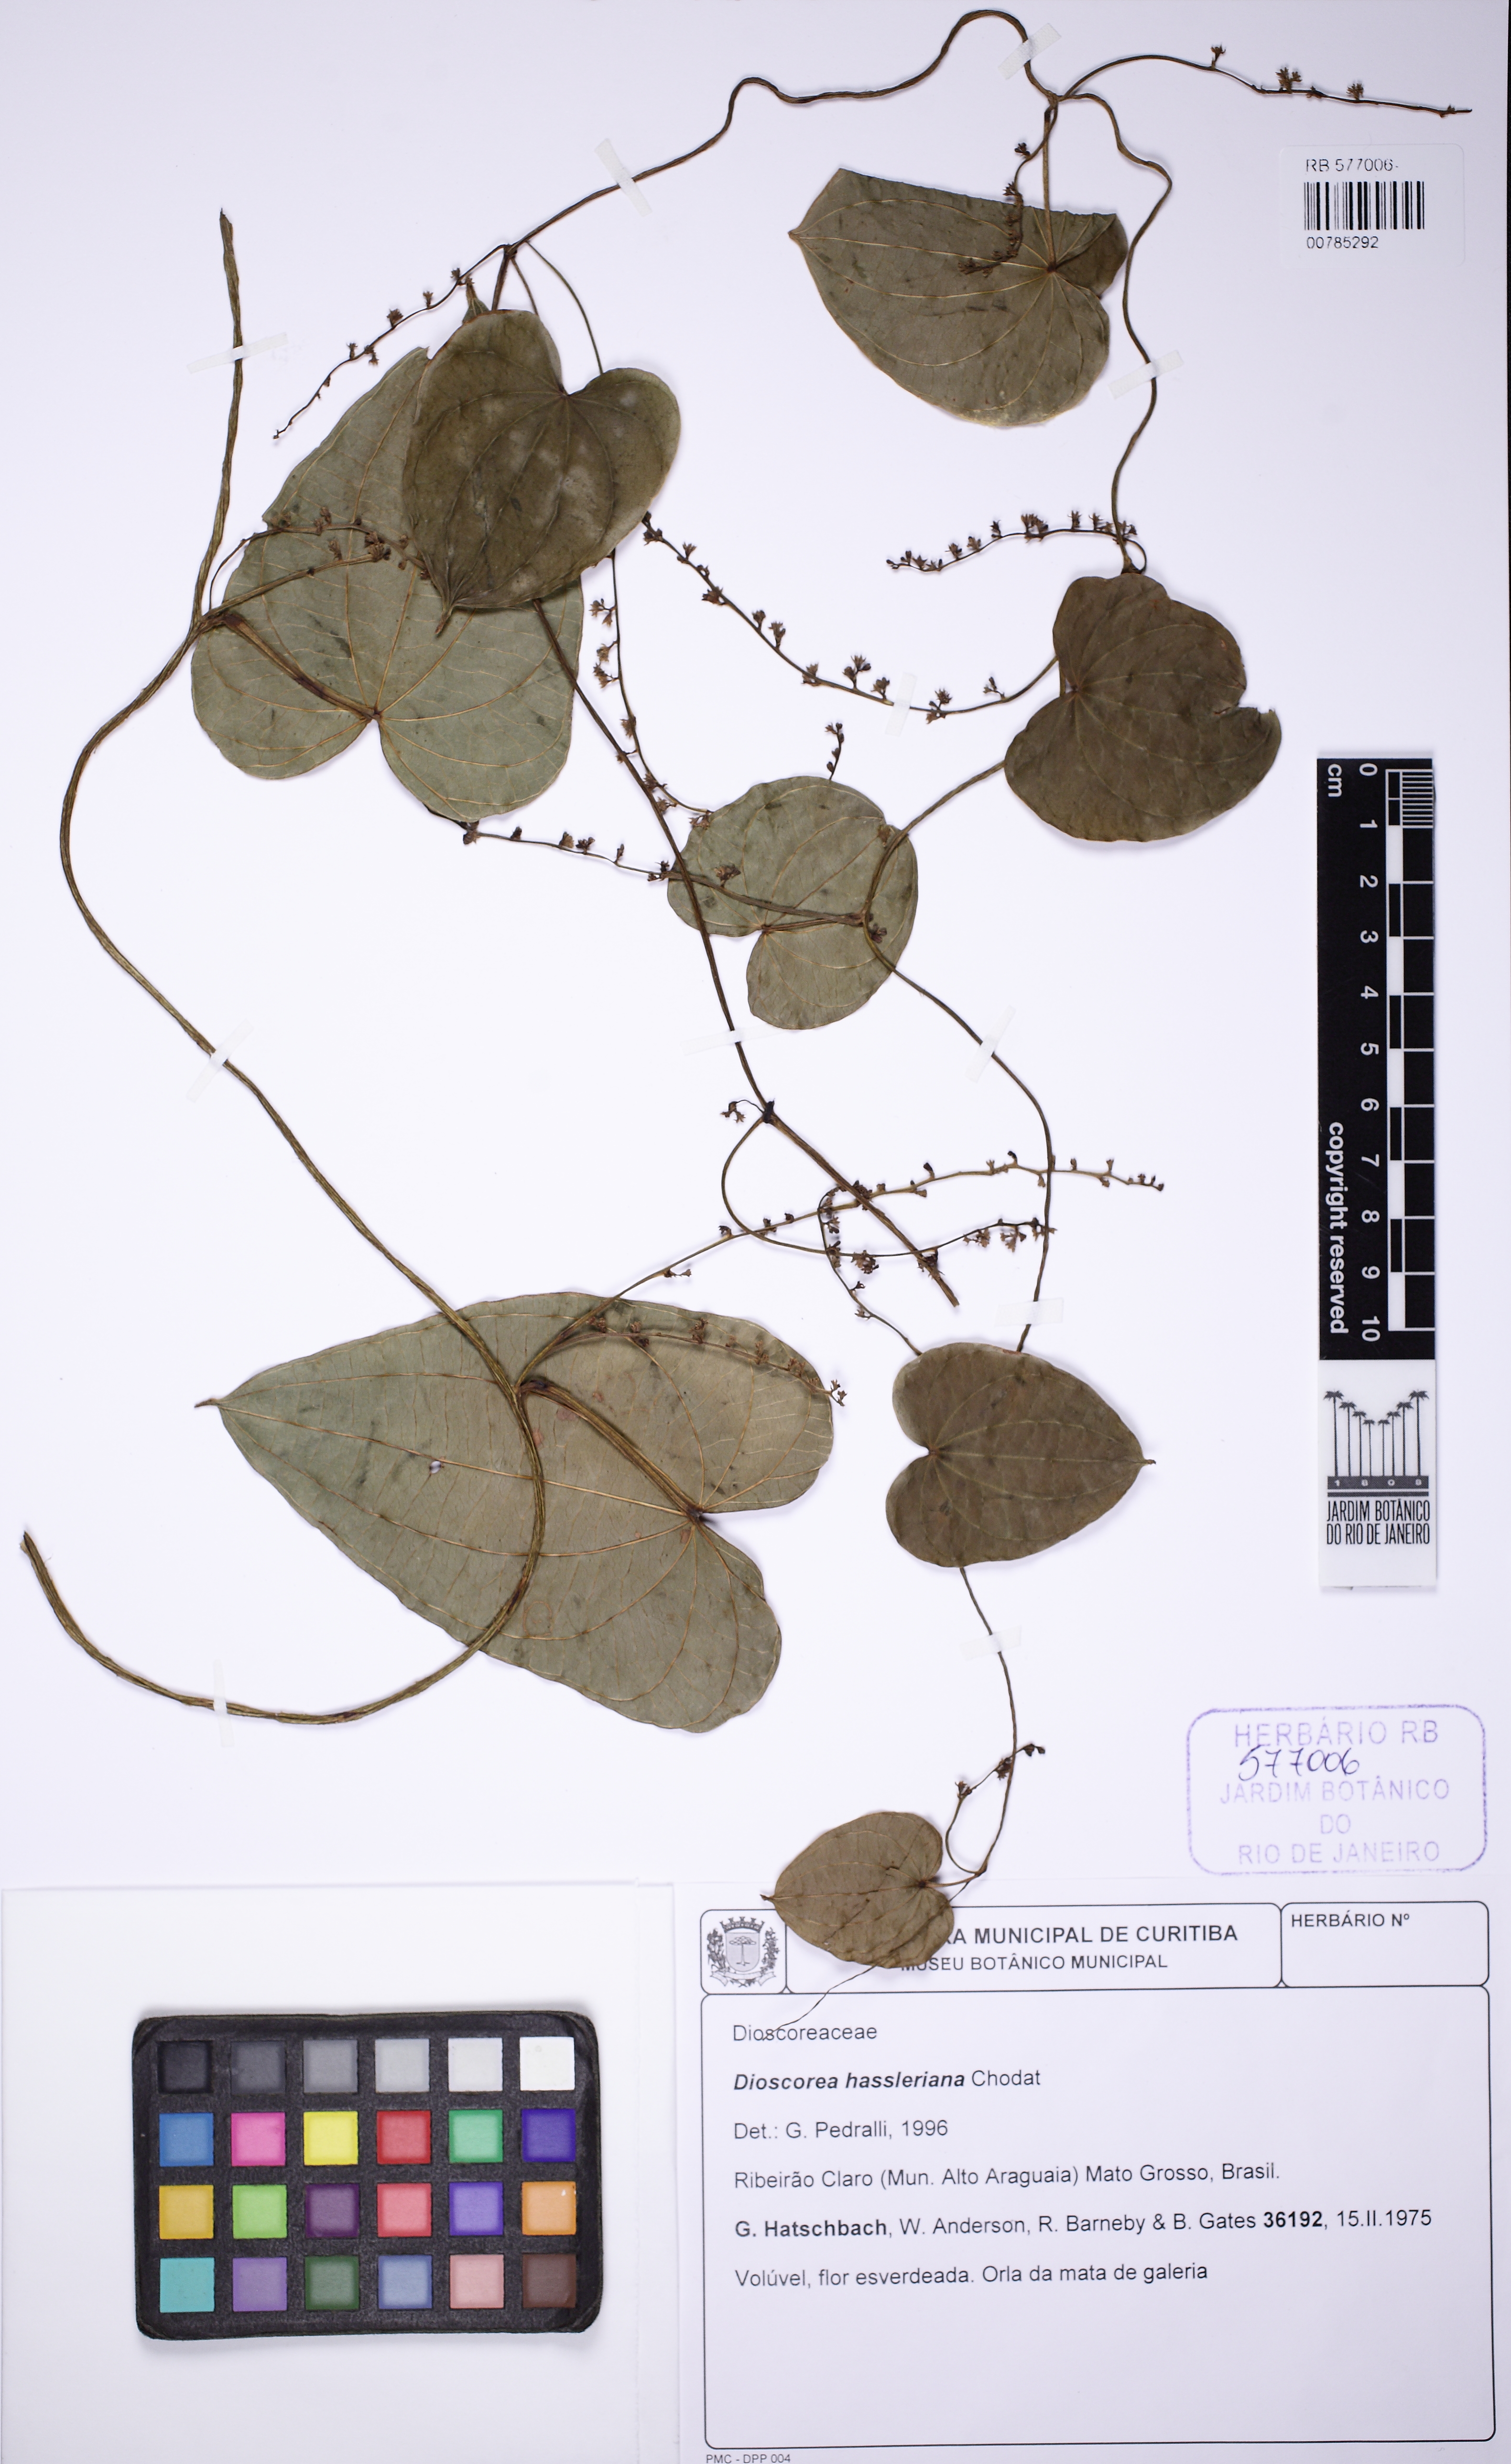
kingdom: Plantae
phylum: Tracheophyta
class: Liliopsida
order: Dioscoreales
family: Dioscoreaceae
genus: Dioscorea
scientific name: Dioscorea hassleriana
